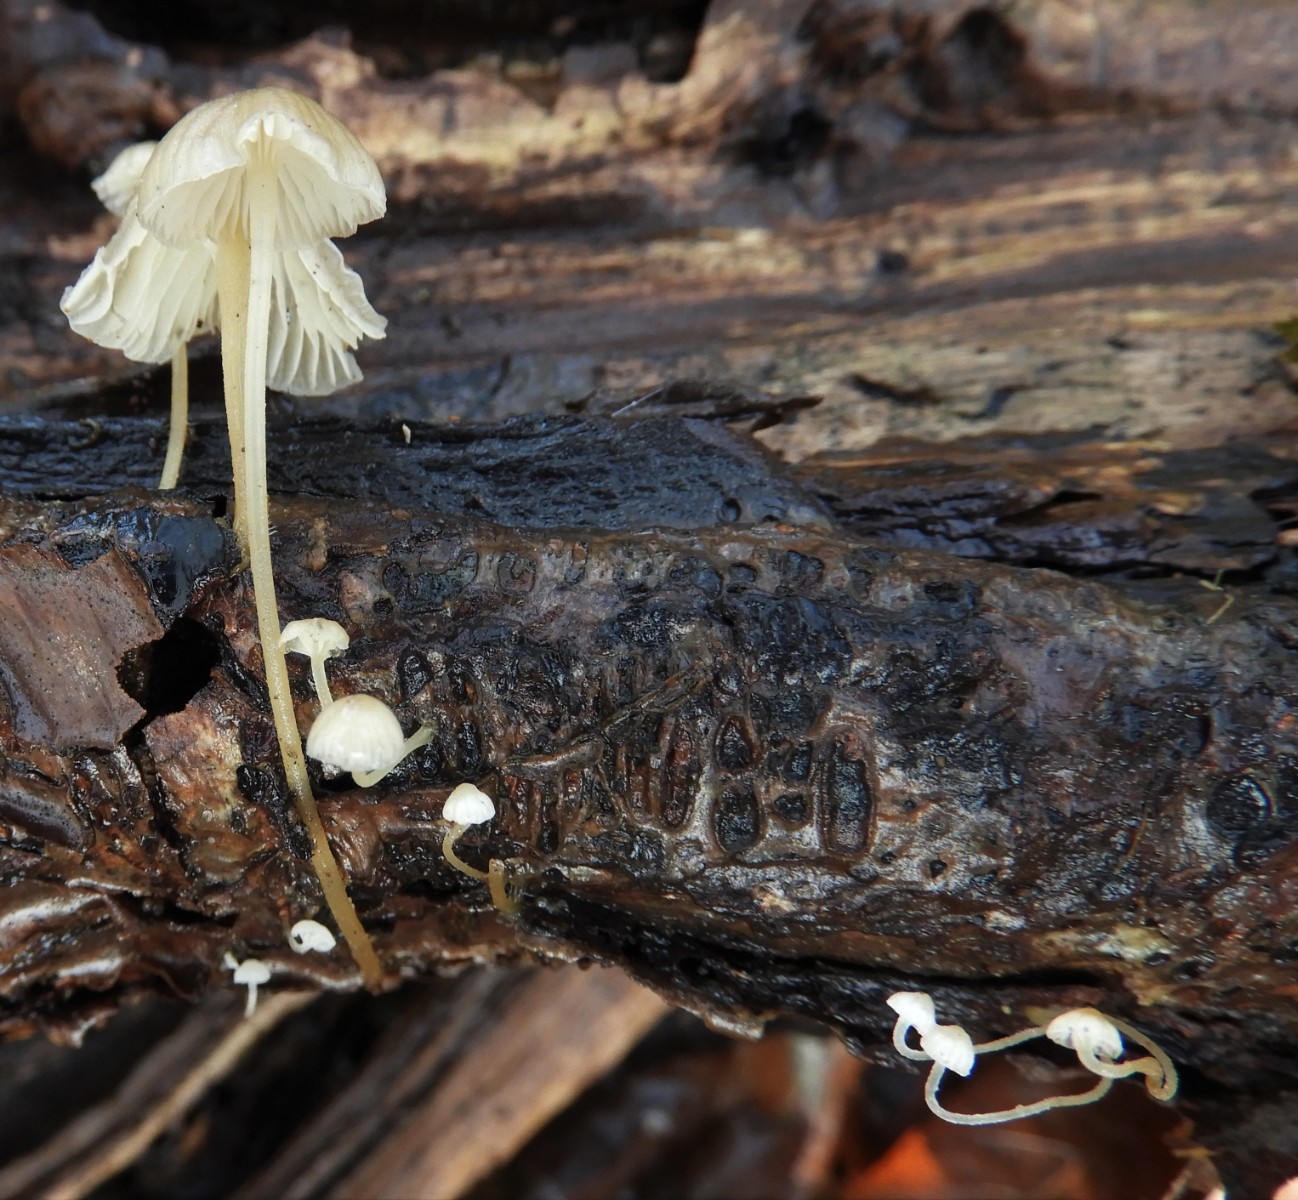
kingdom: Fungi
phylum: Basidiomycota
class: Agaricomycetes
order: Agaricales
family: Porotheleaceae
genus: Phloeomana
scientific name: Phloeomana speirea
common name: kvist-huesvamp
